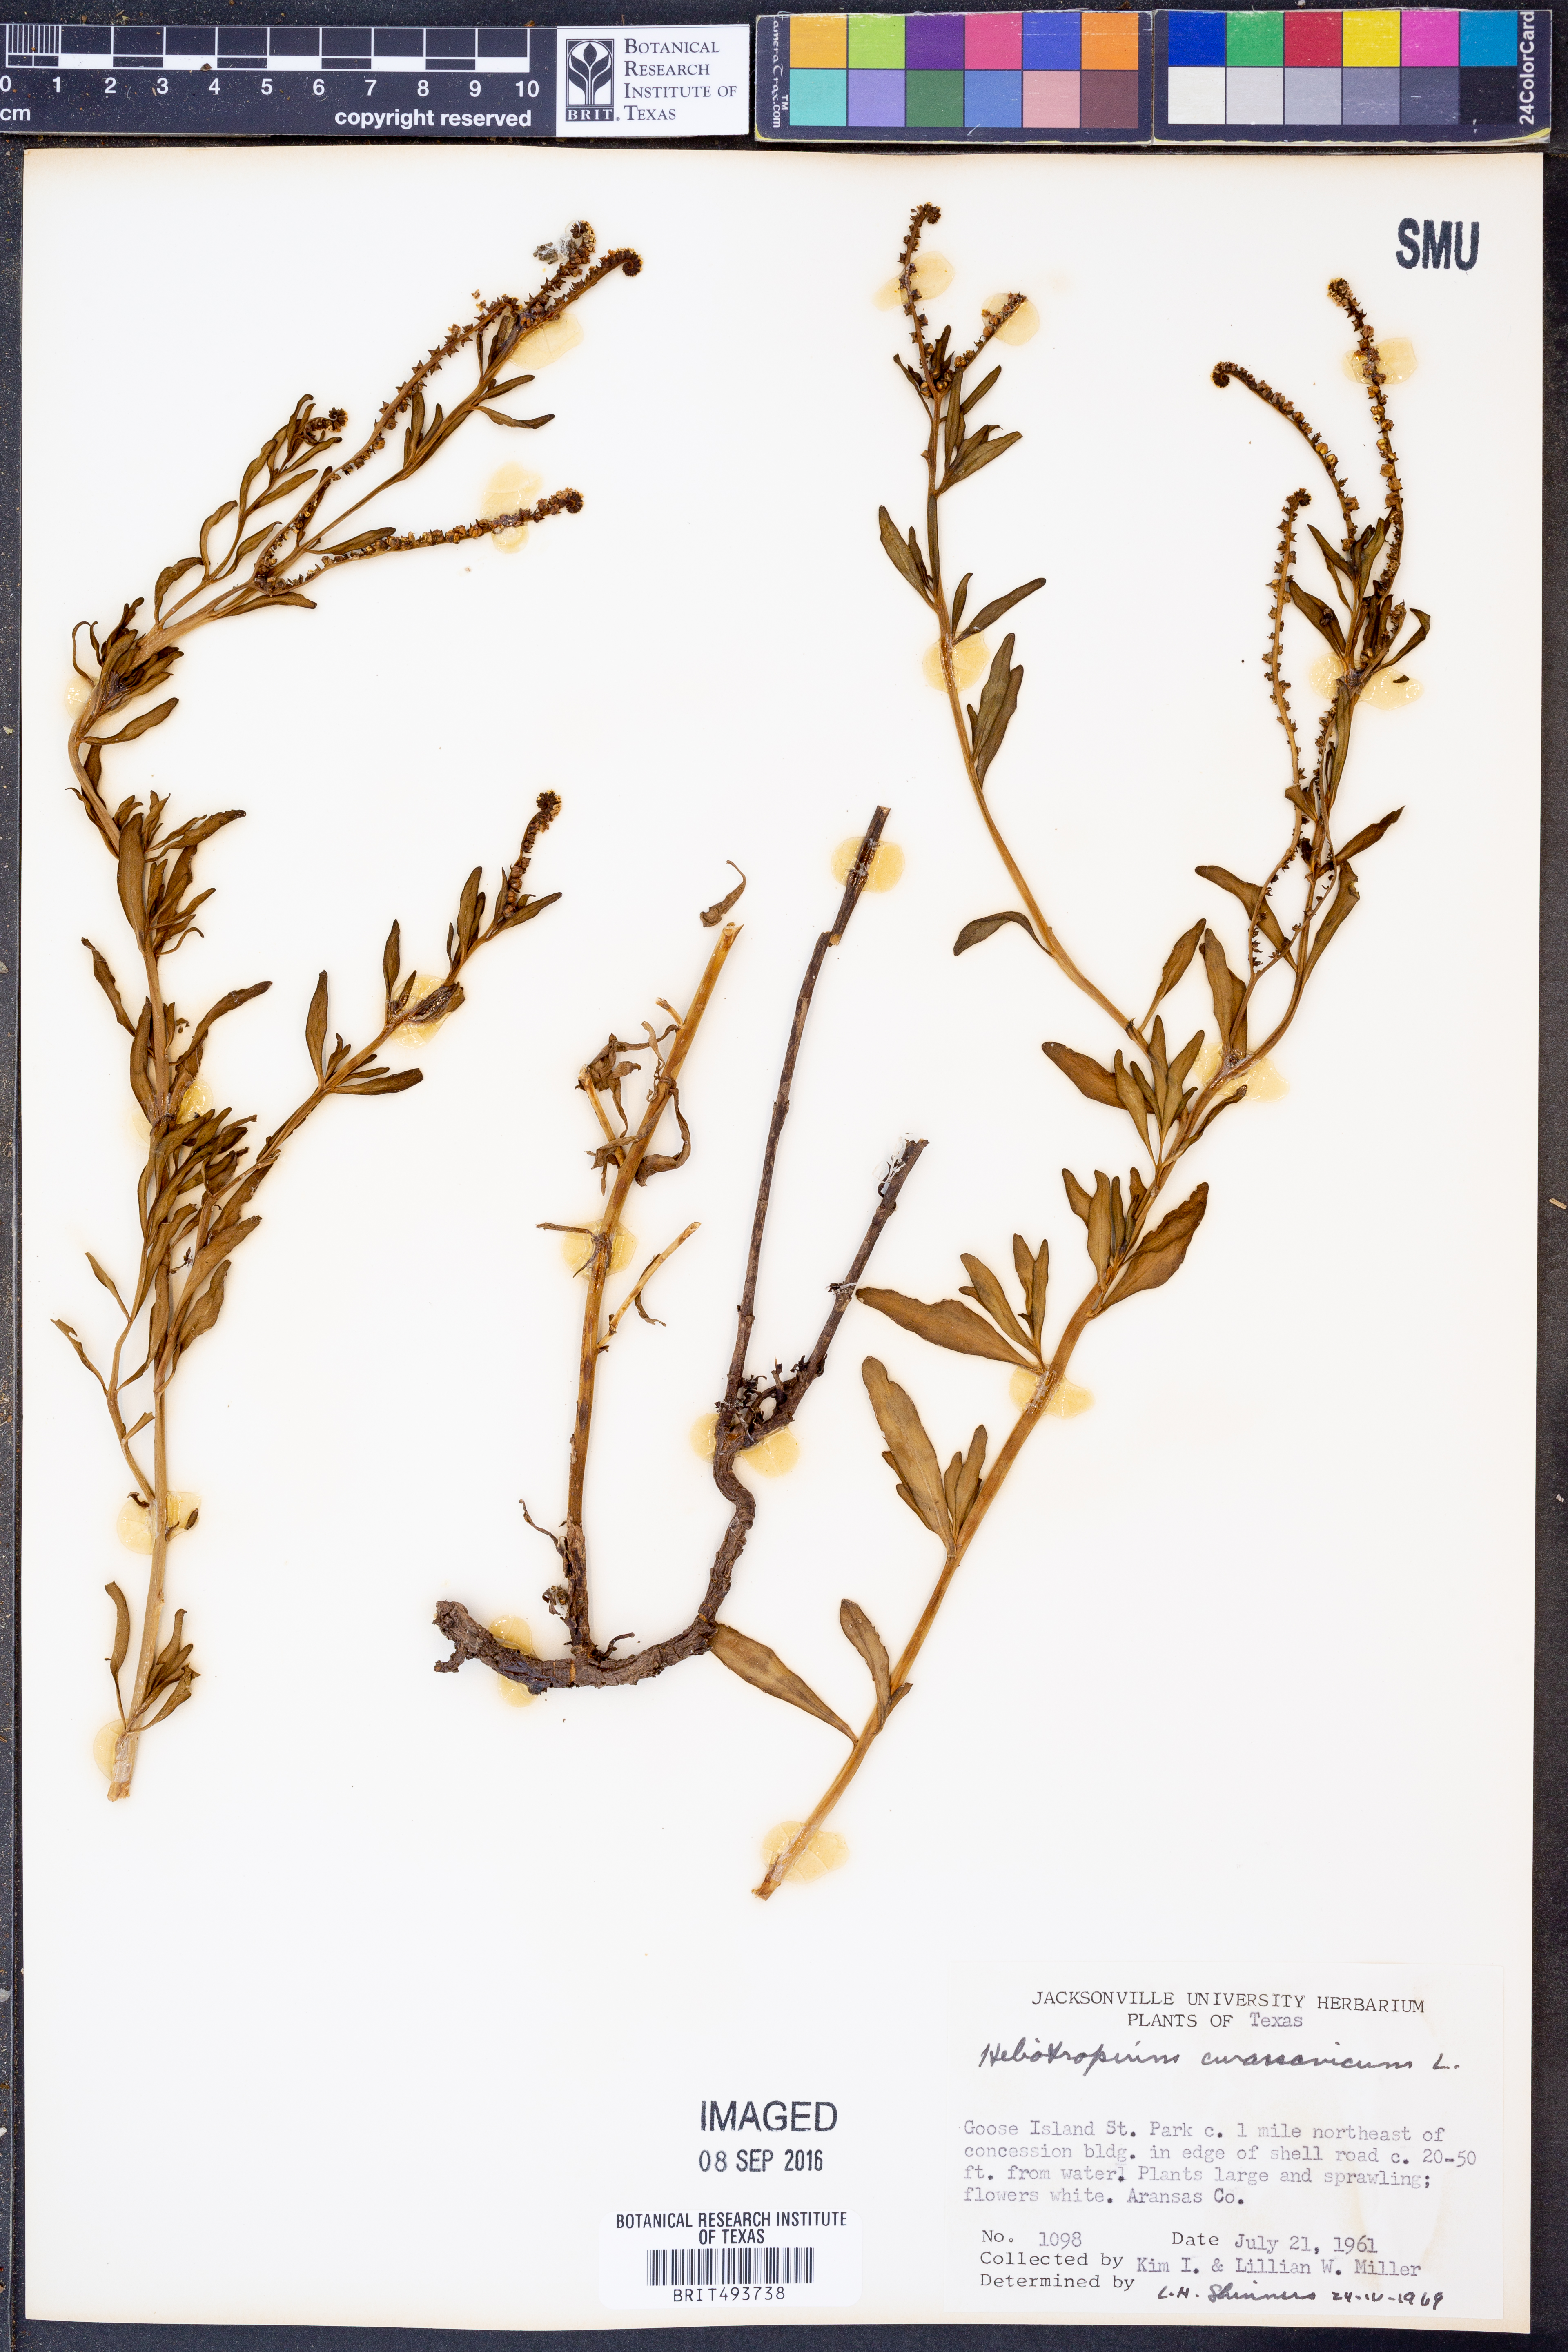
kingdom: Plantae
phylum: Tracheophyta
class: Magnoliopsida
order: Boraginales
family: Heliotropiaceae
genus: Heliotropium
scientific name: Heliotropium curassavicum
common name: Seaside heliotrope
